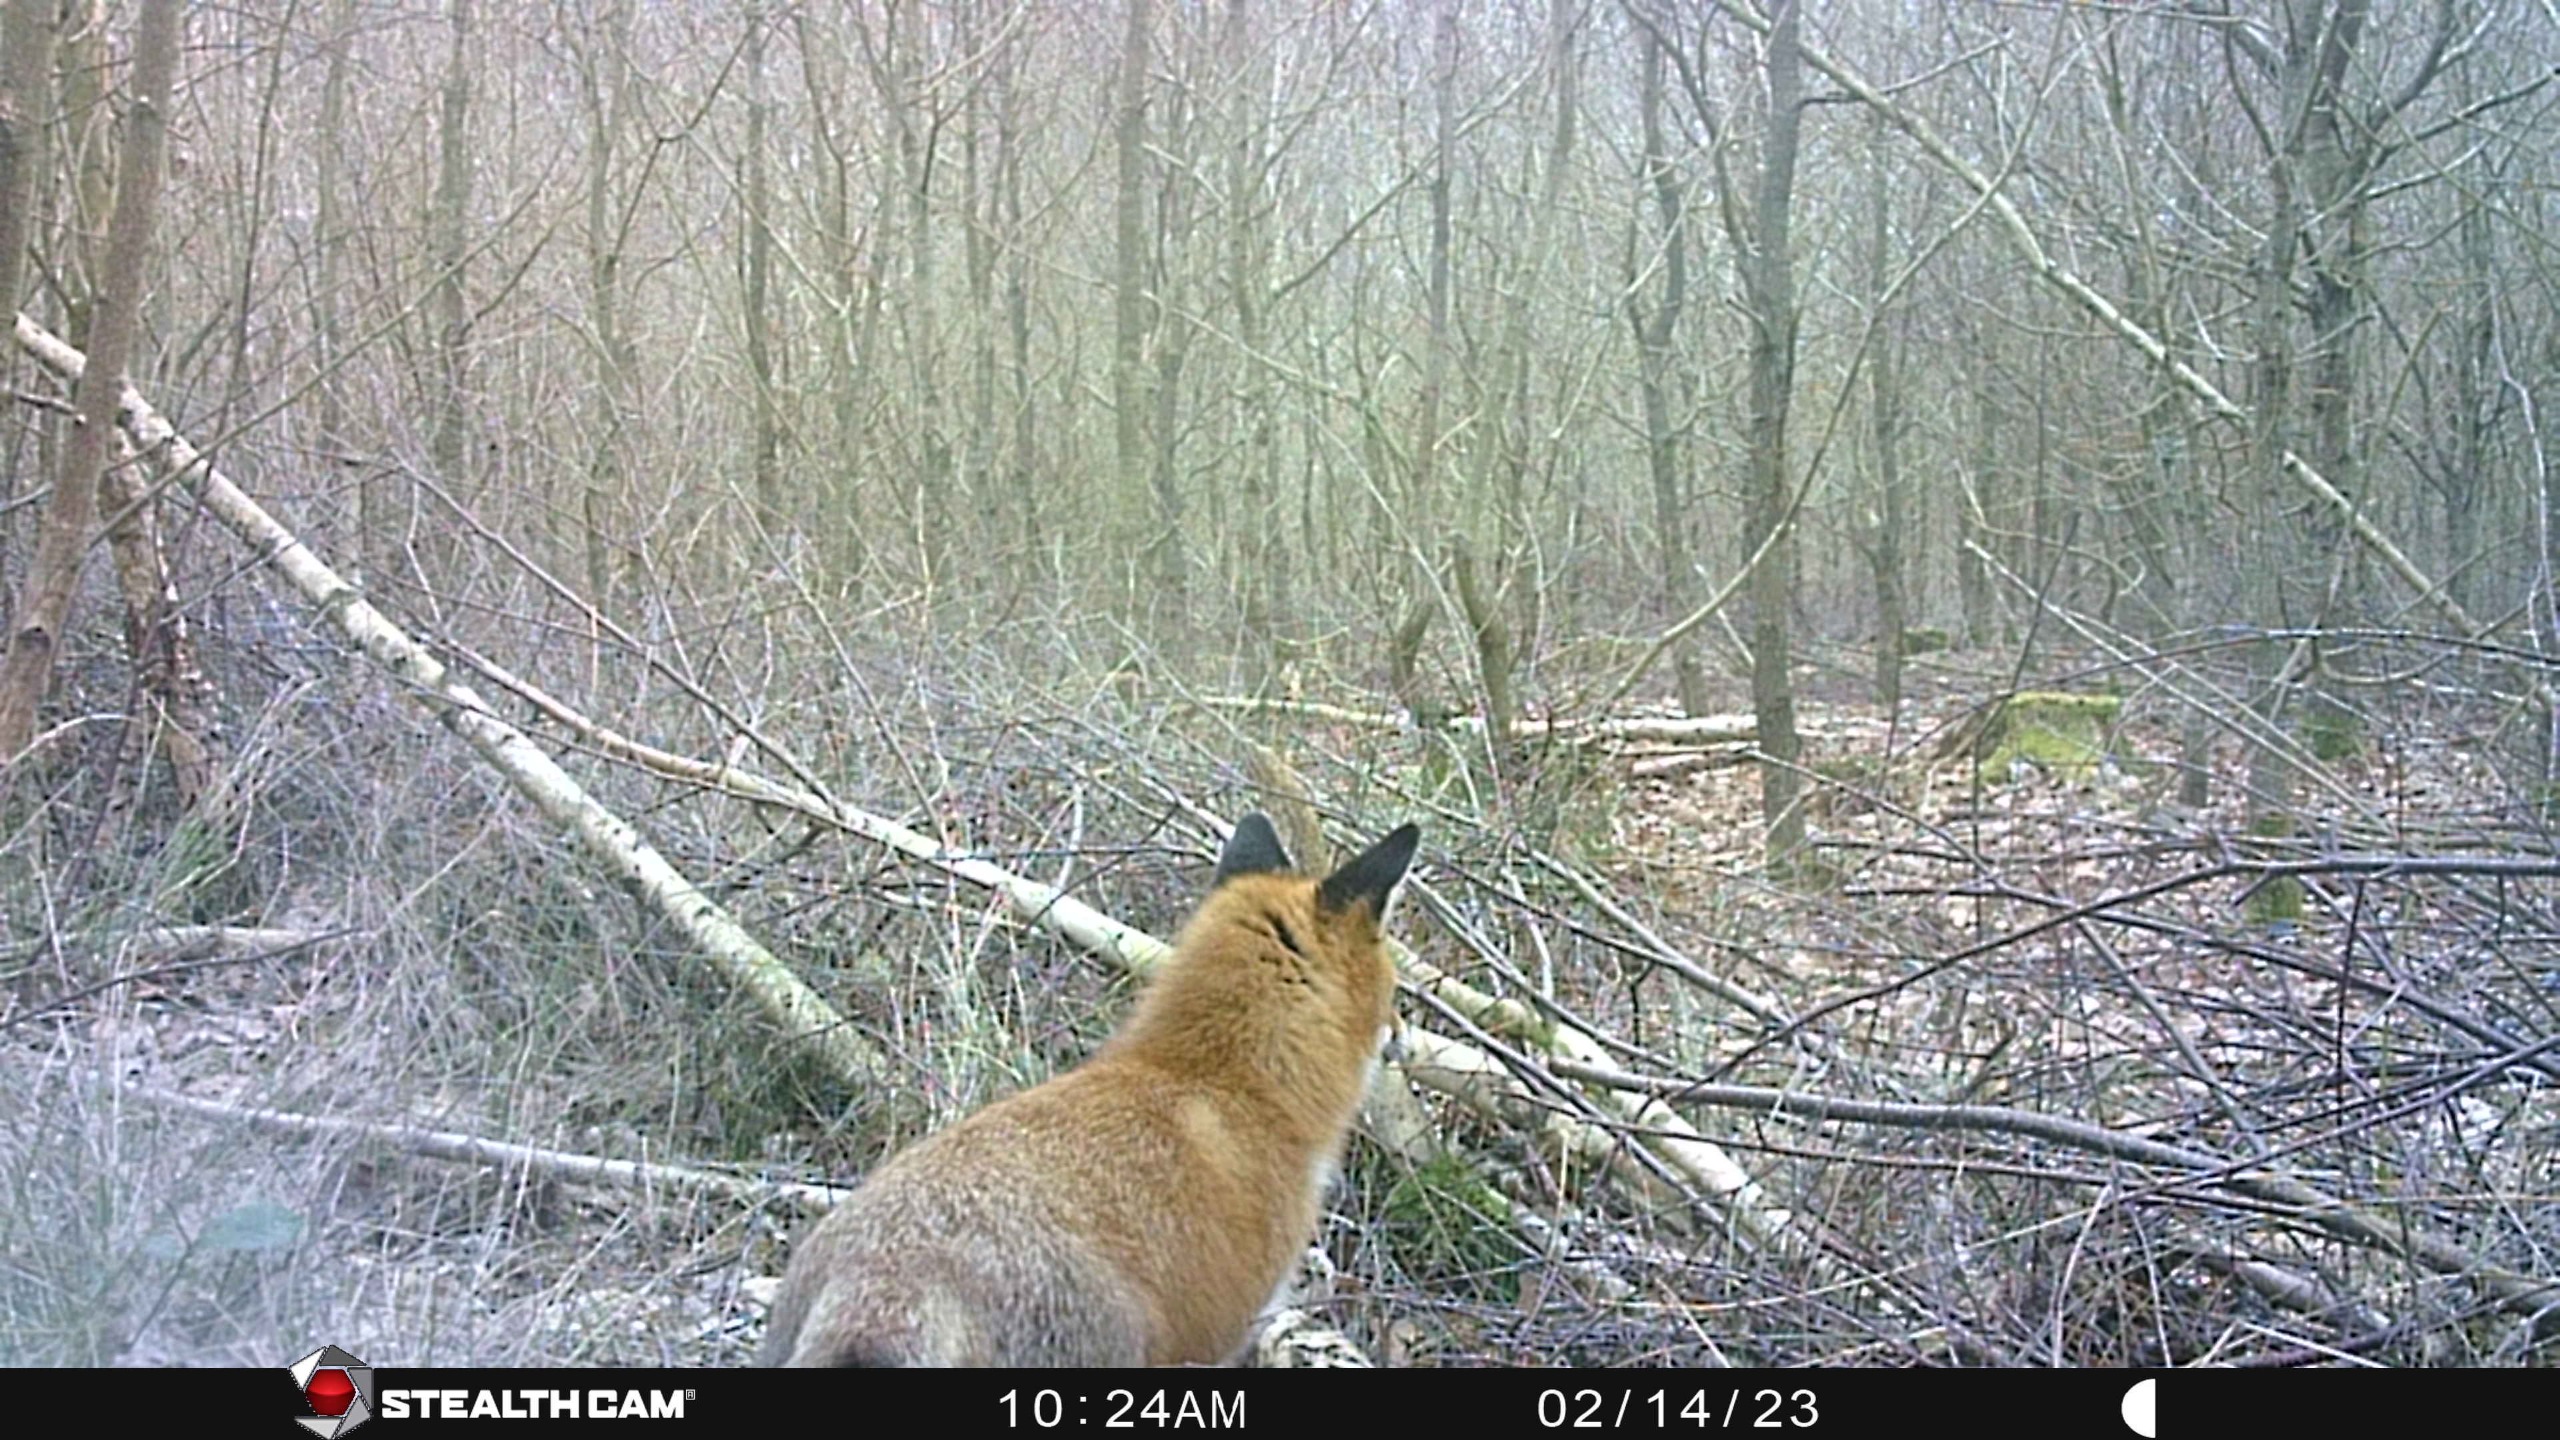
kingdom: Animalia
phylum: Chordata
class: Mammalia
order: Carnivora
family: Canidae
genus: Vulpes
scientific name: Vulpes vulpes
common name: Ræv
